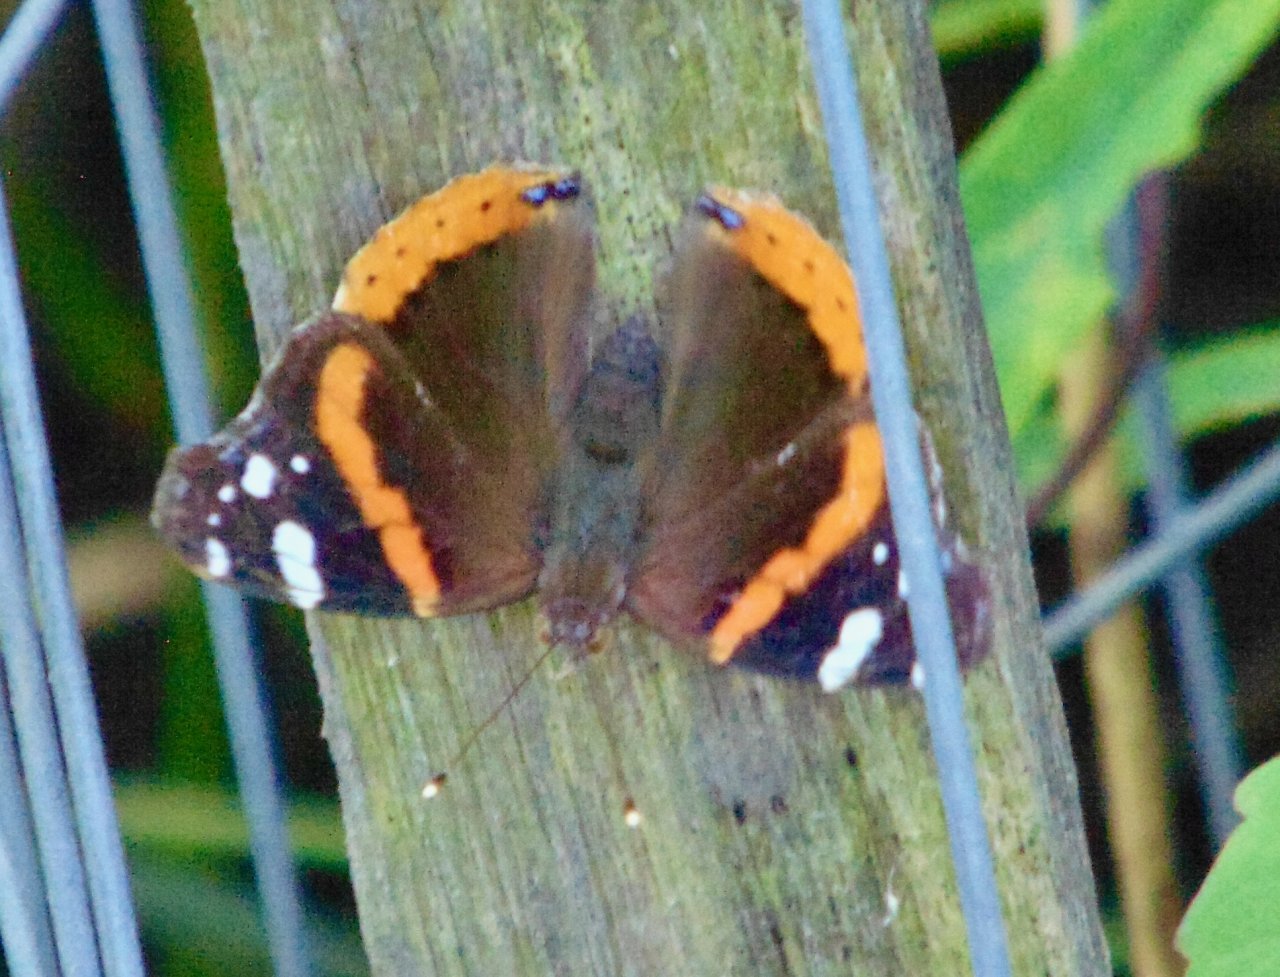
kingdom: Animalia
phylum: Arthropoda
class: Insecta
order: Lepidoptera
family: Nymphalidae
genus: Vanessa
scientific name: Vanessa atalanta
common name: Red Admiral
